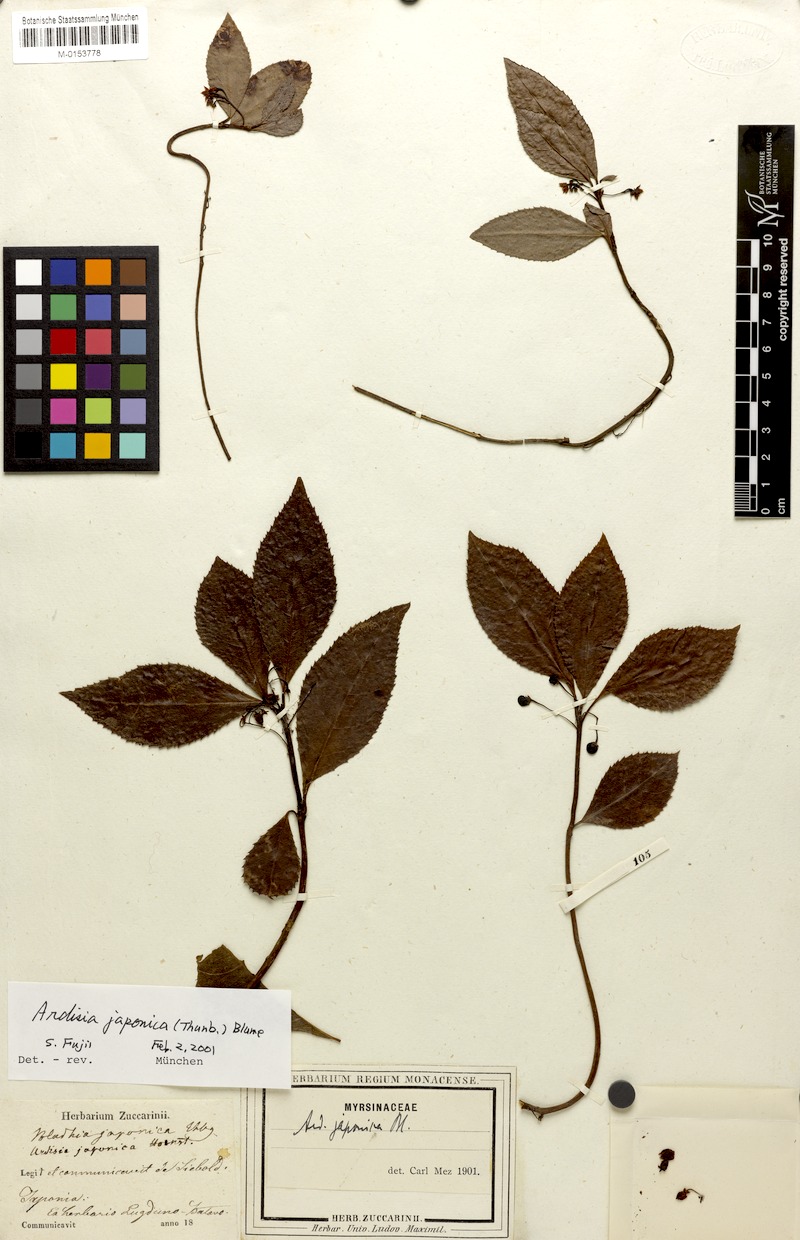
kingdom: Plantae
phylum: Tracheophyta
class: Magnoliopsida
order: Ericales
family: Primulaceae
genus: Ardisia
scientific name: Ardisia japonica
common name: Marlberry
